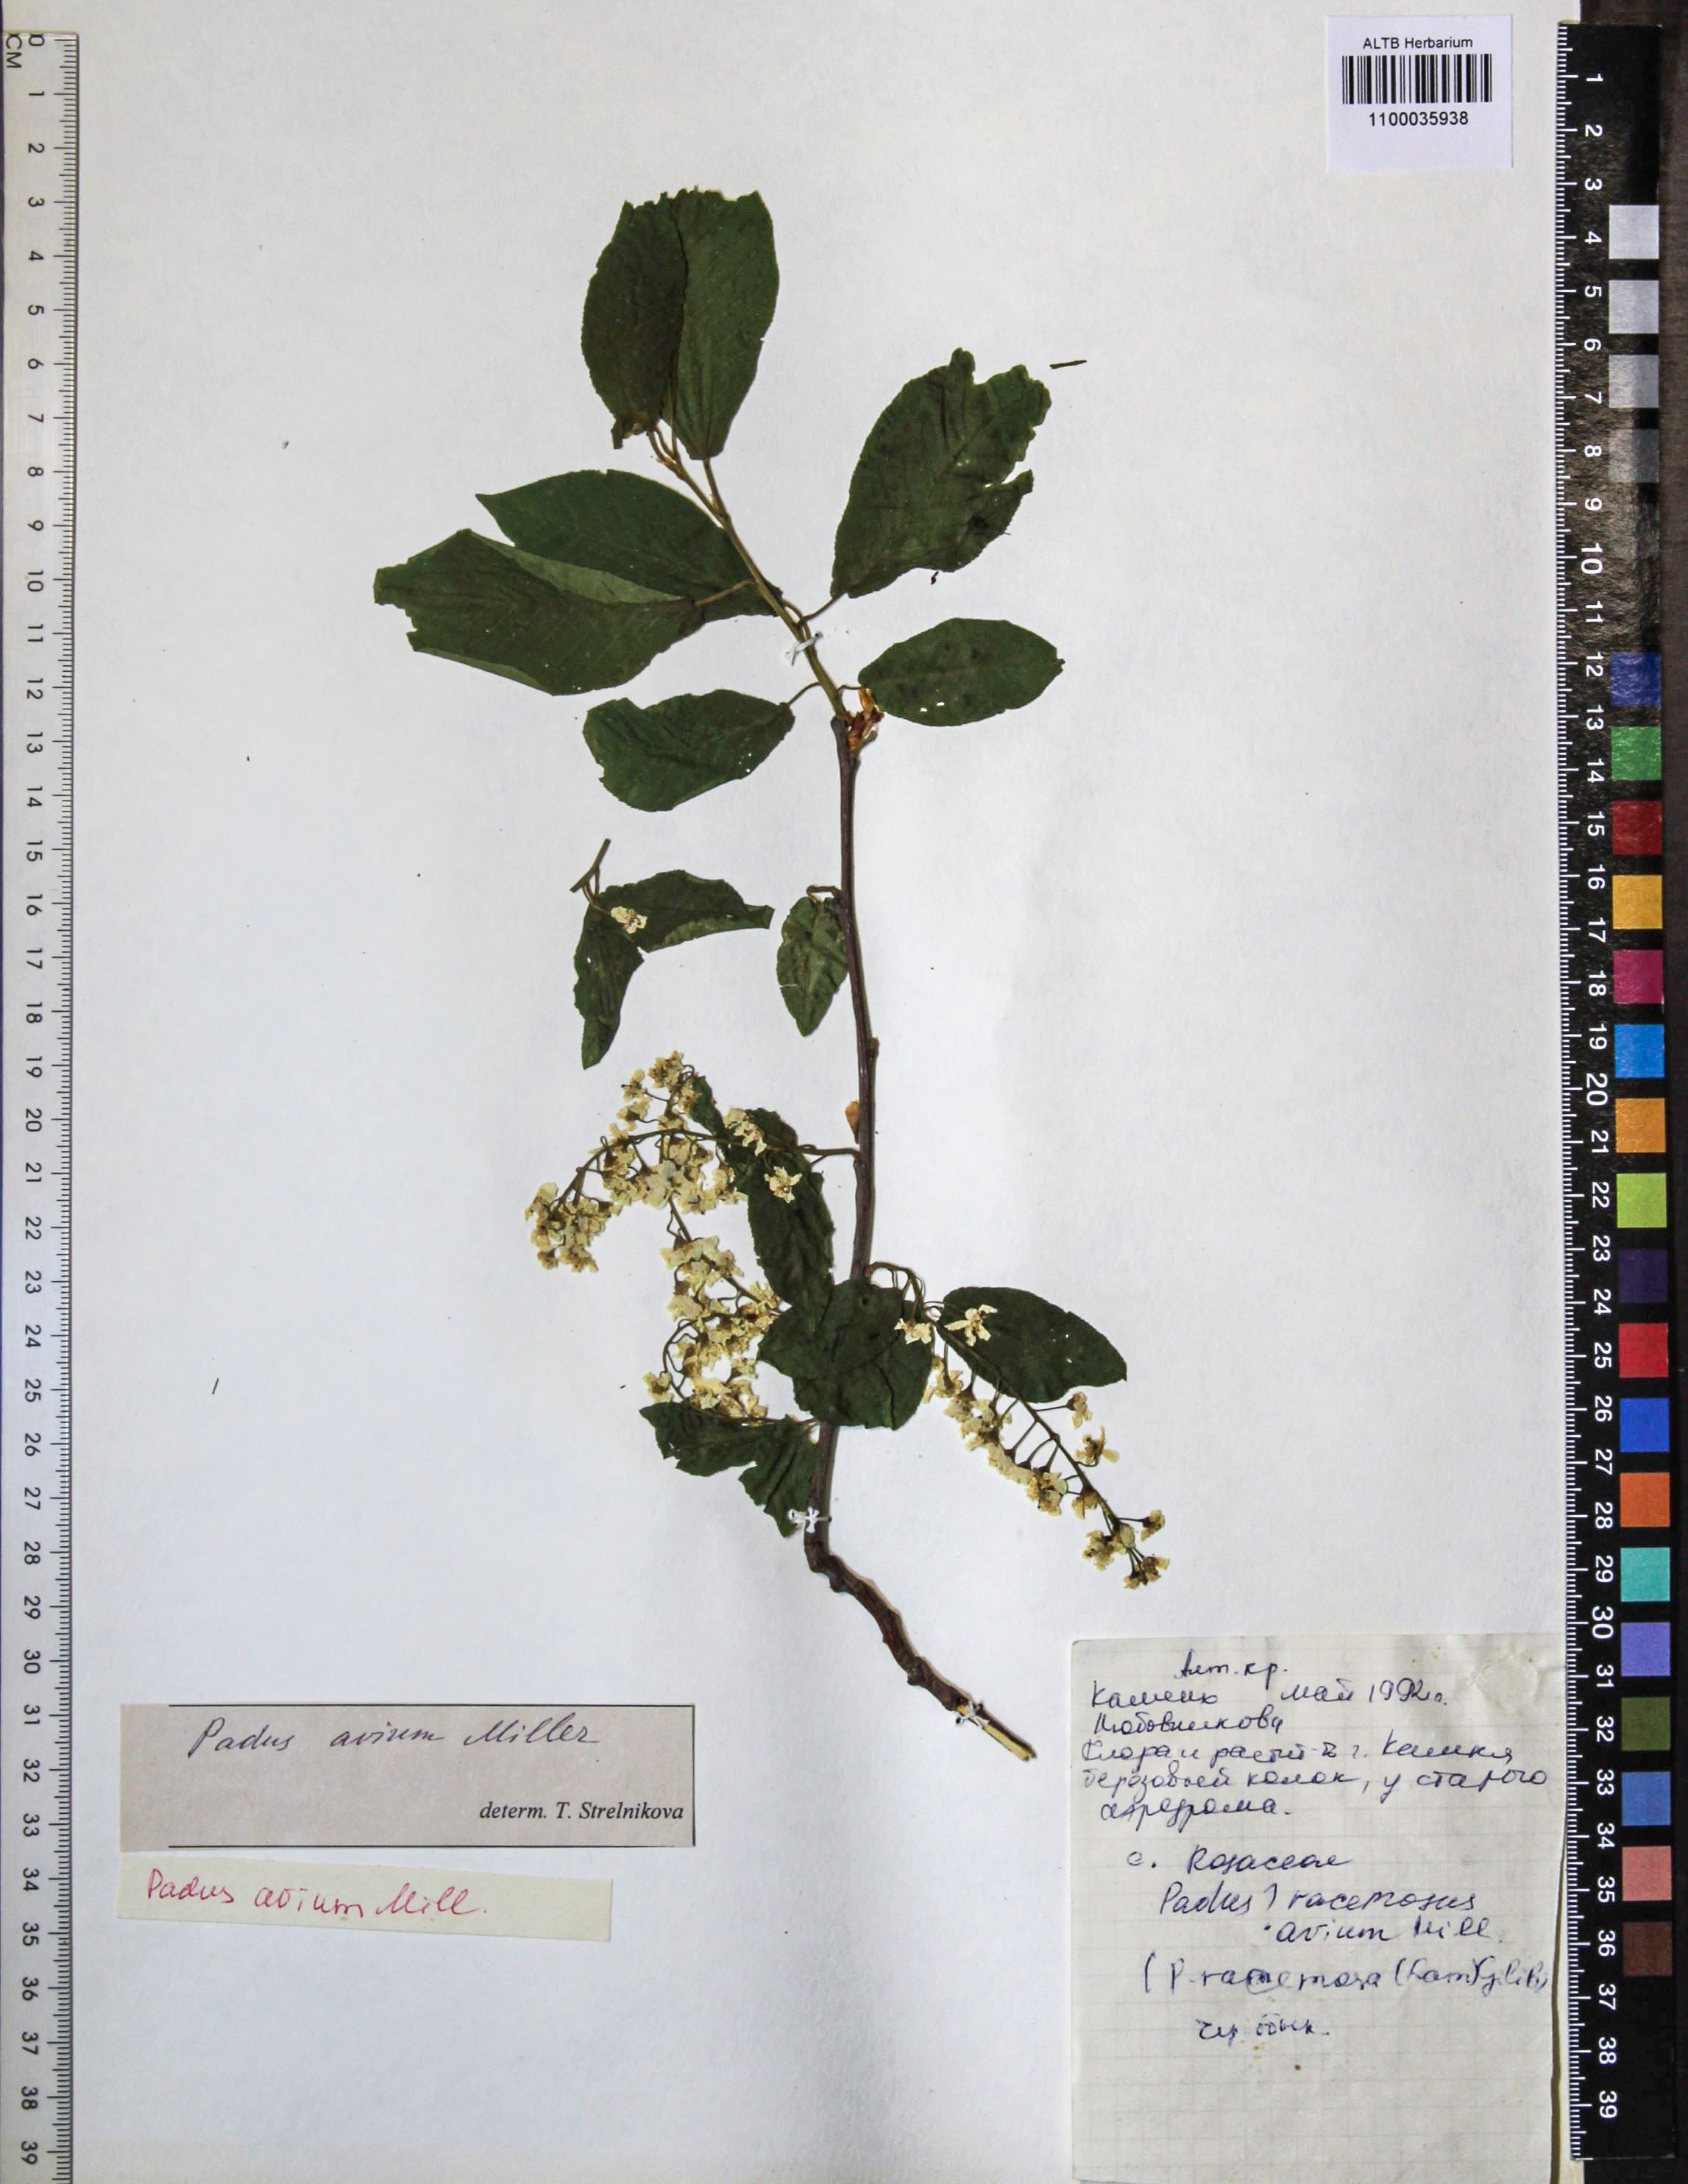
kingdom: Plantae
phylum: Tracheophyta
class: Magnoliopsida
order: Rosales
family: Rosaceae
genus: Prunus
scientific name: Prunus padus
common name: Bird cherry
